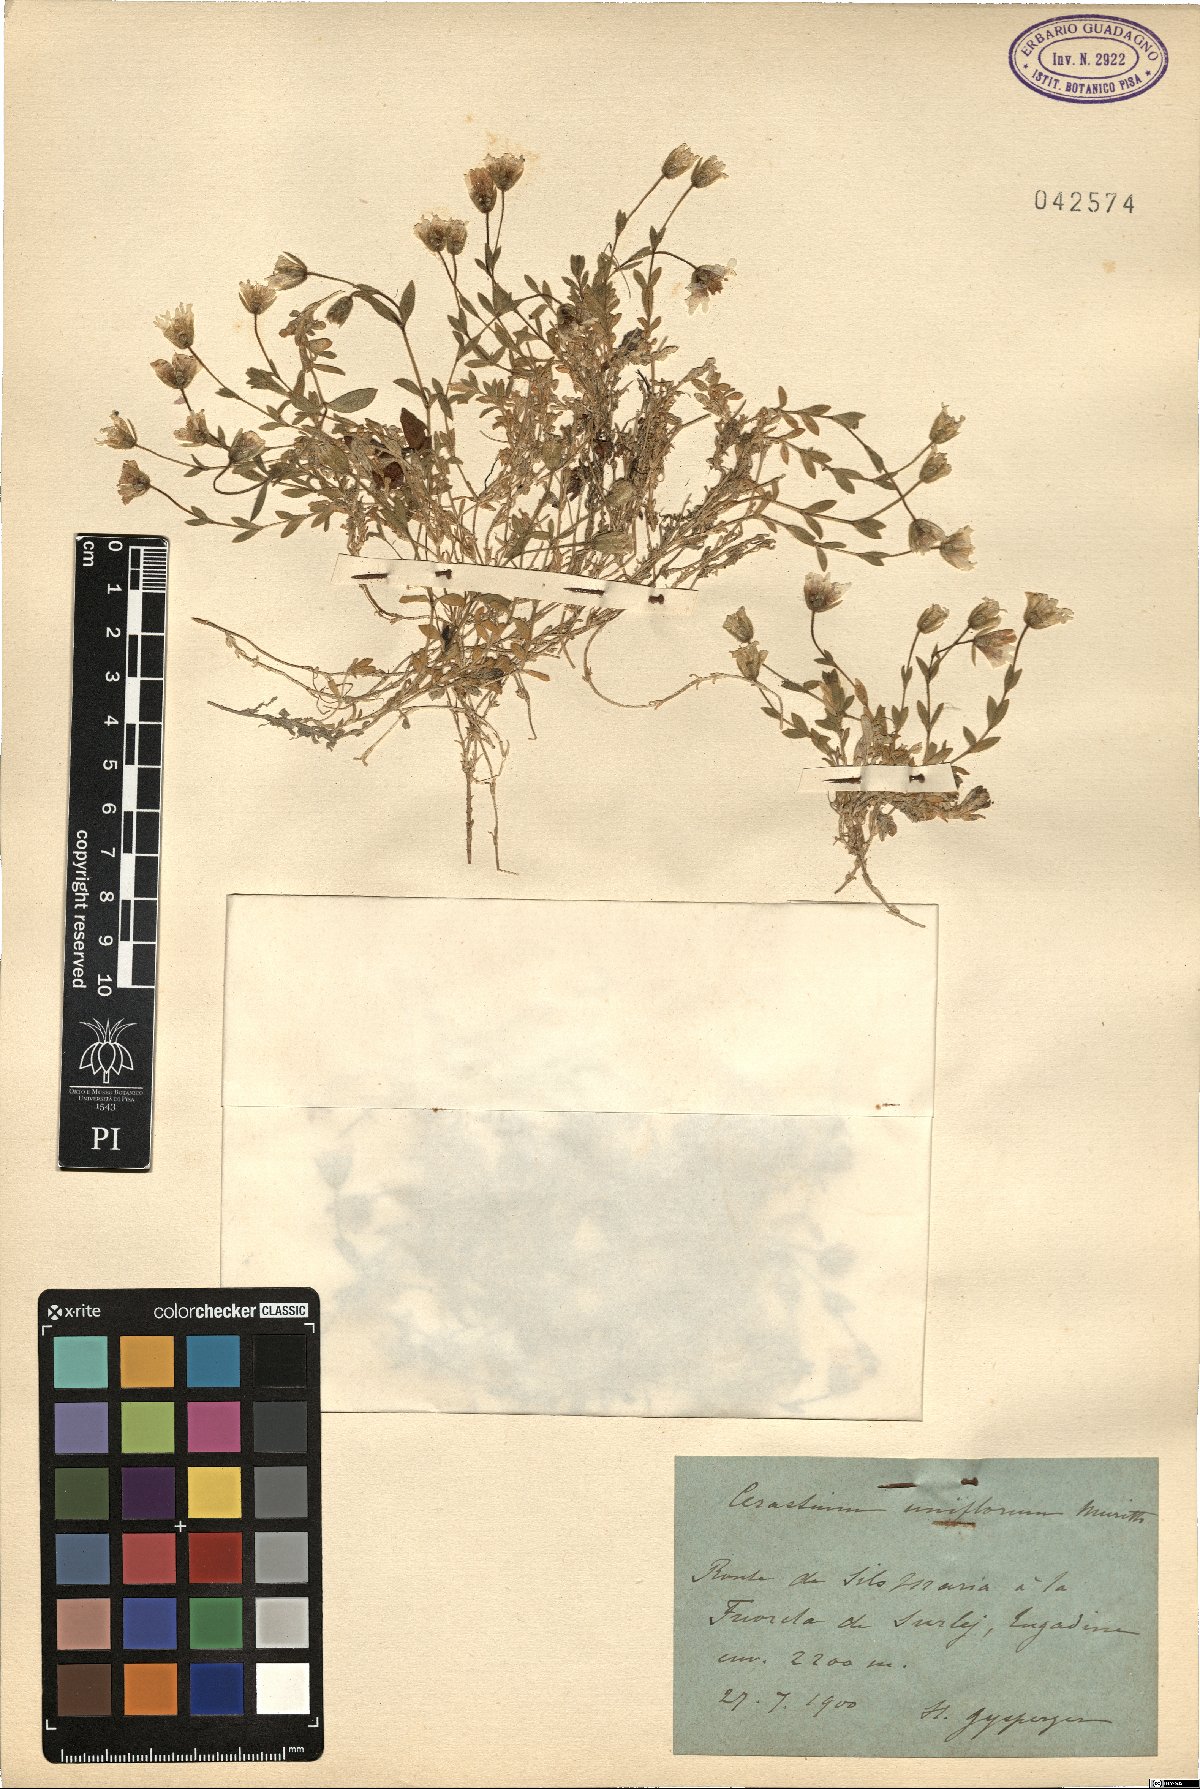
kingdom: Plantae
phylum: Tracheophyta
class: Magnoliopsida
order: Caryophyllales
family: Caryophyllaceae
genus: Cerastium
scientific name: Cerastium uniflorum
